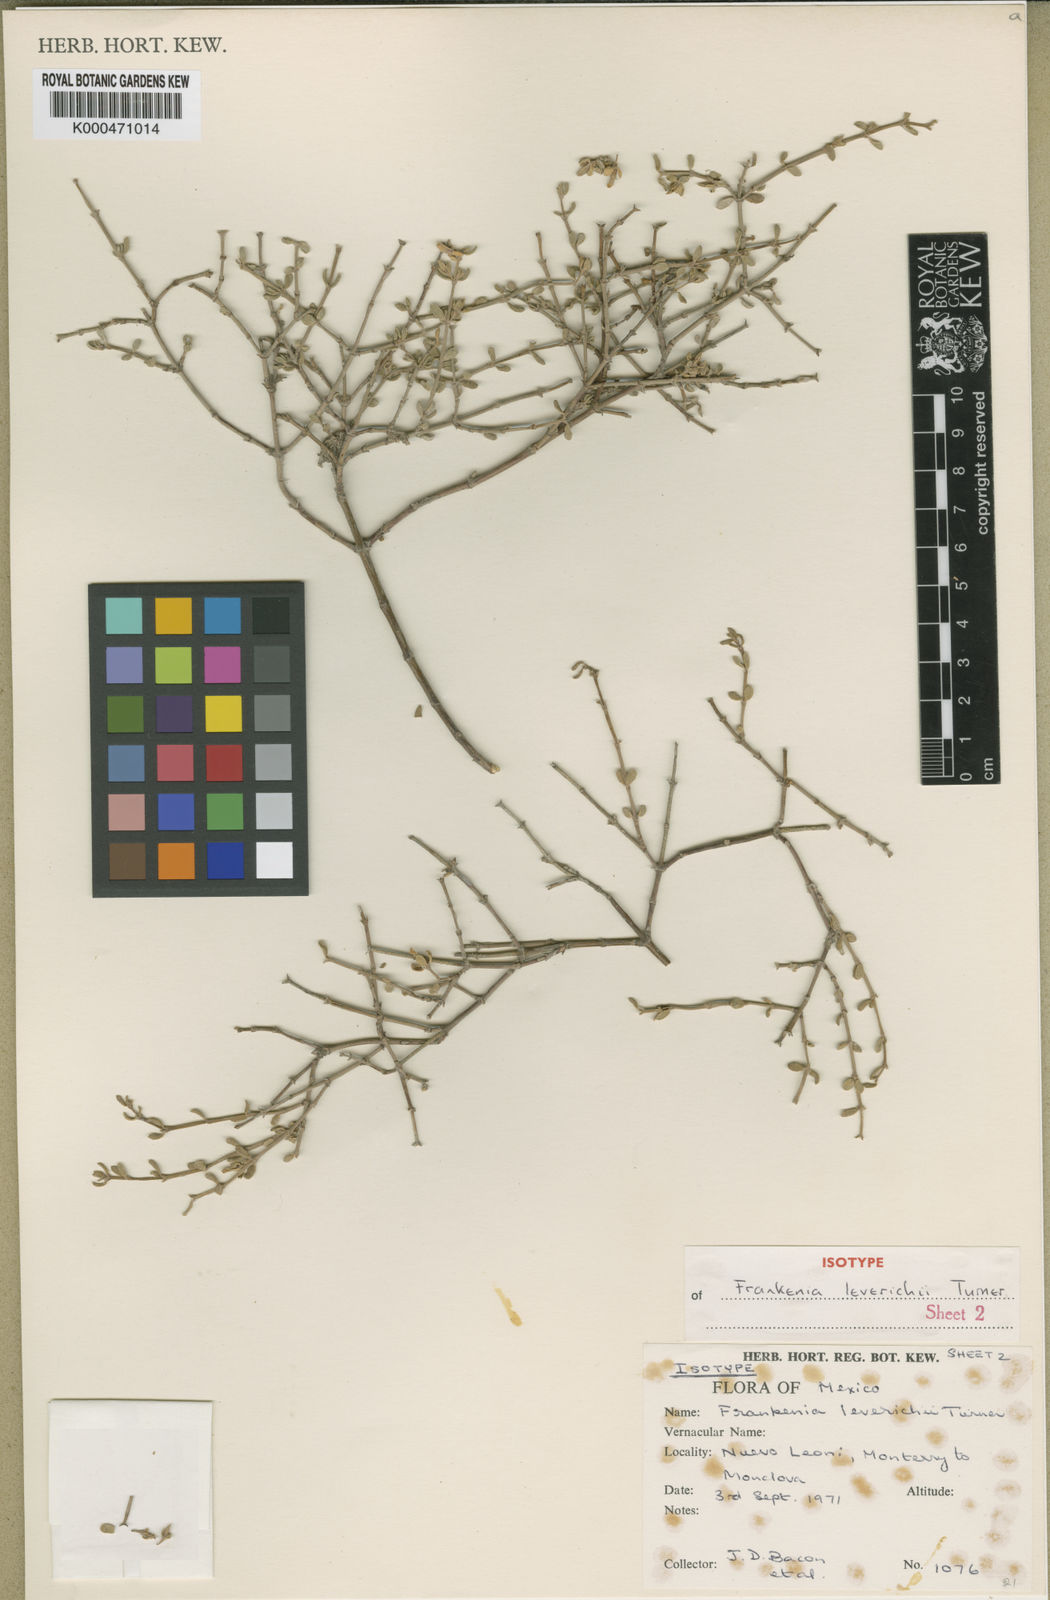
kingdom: Plantae
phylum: Tracheophyta
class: Magnoliopsida
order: Caryophyllales
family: Frankeniaceae
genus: Frankenia
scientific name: Frankenia johnstonii
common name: Johnston's frankenia
